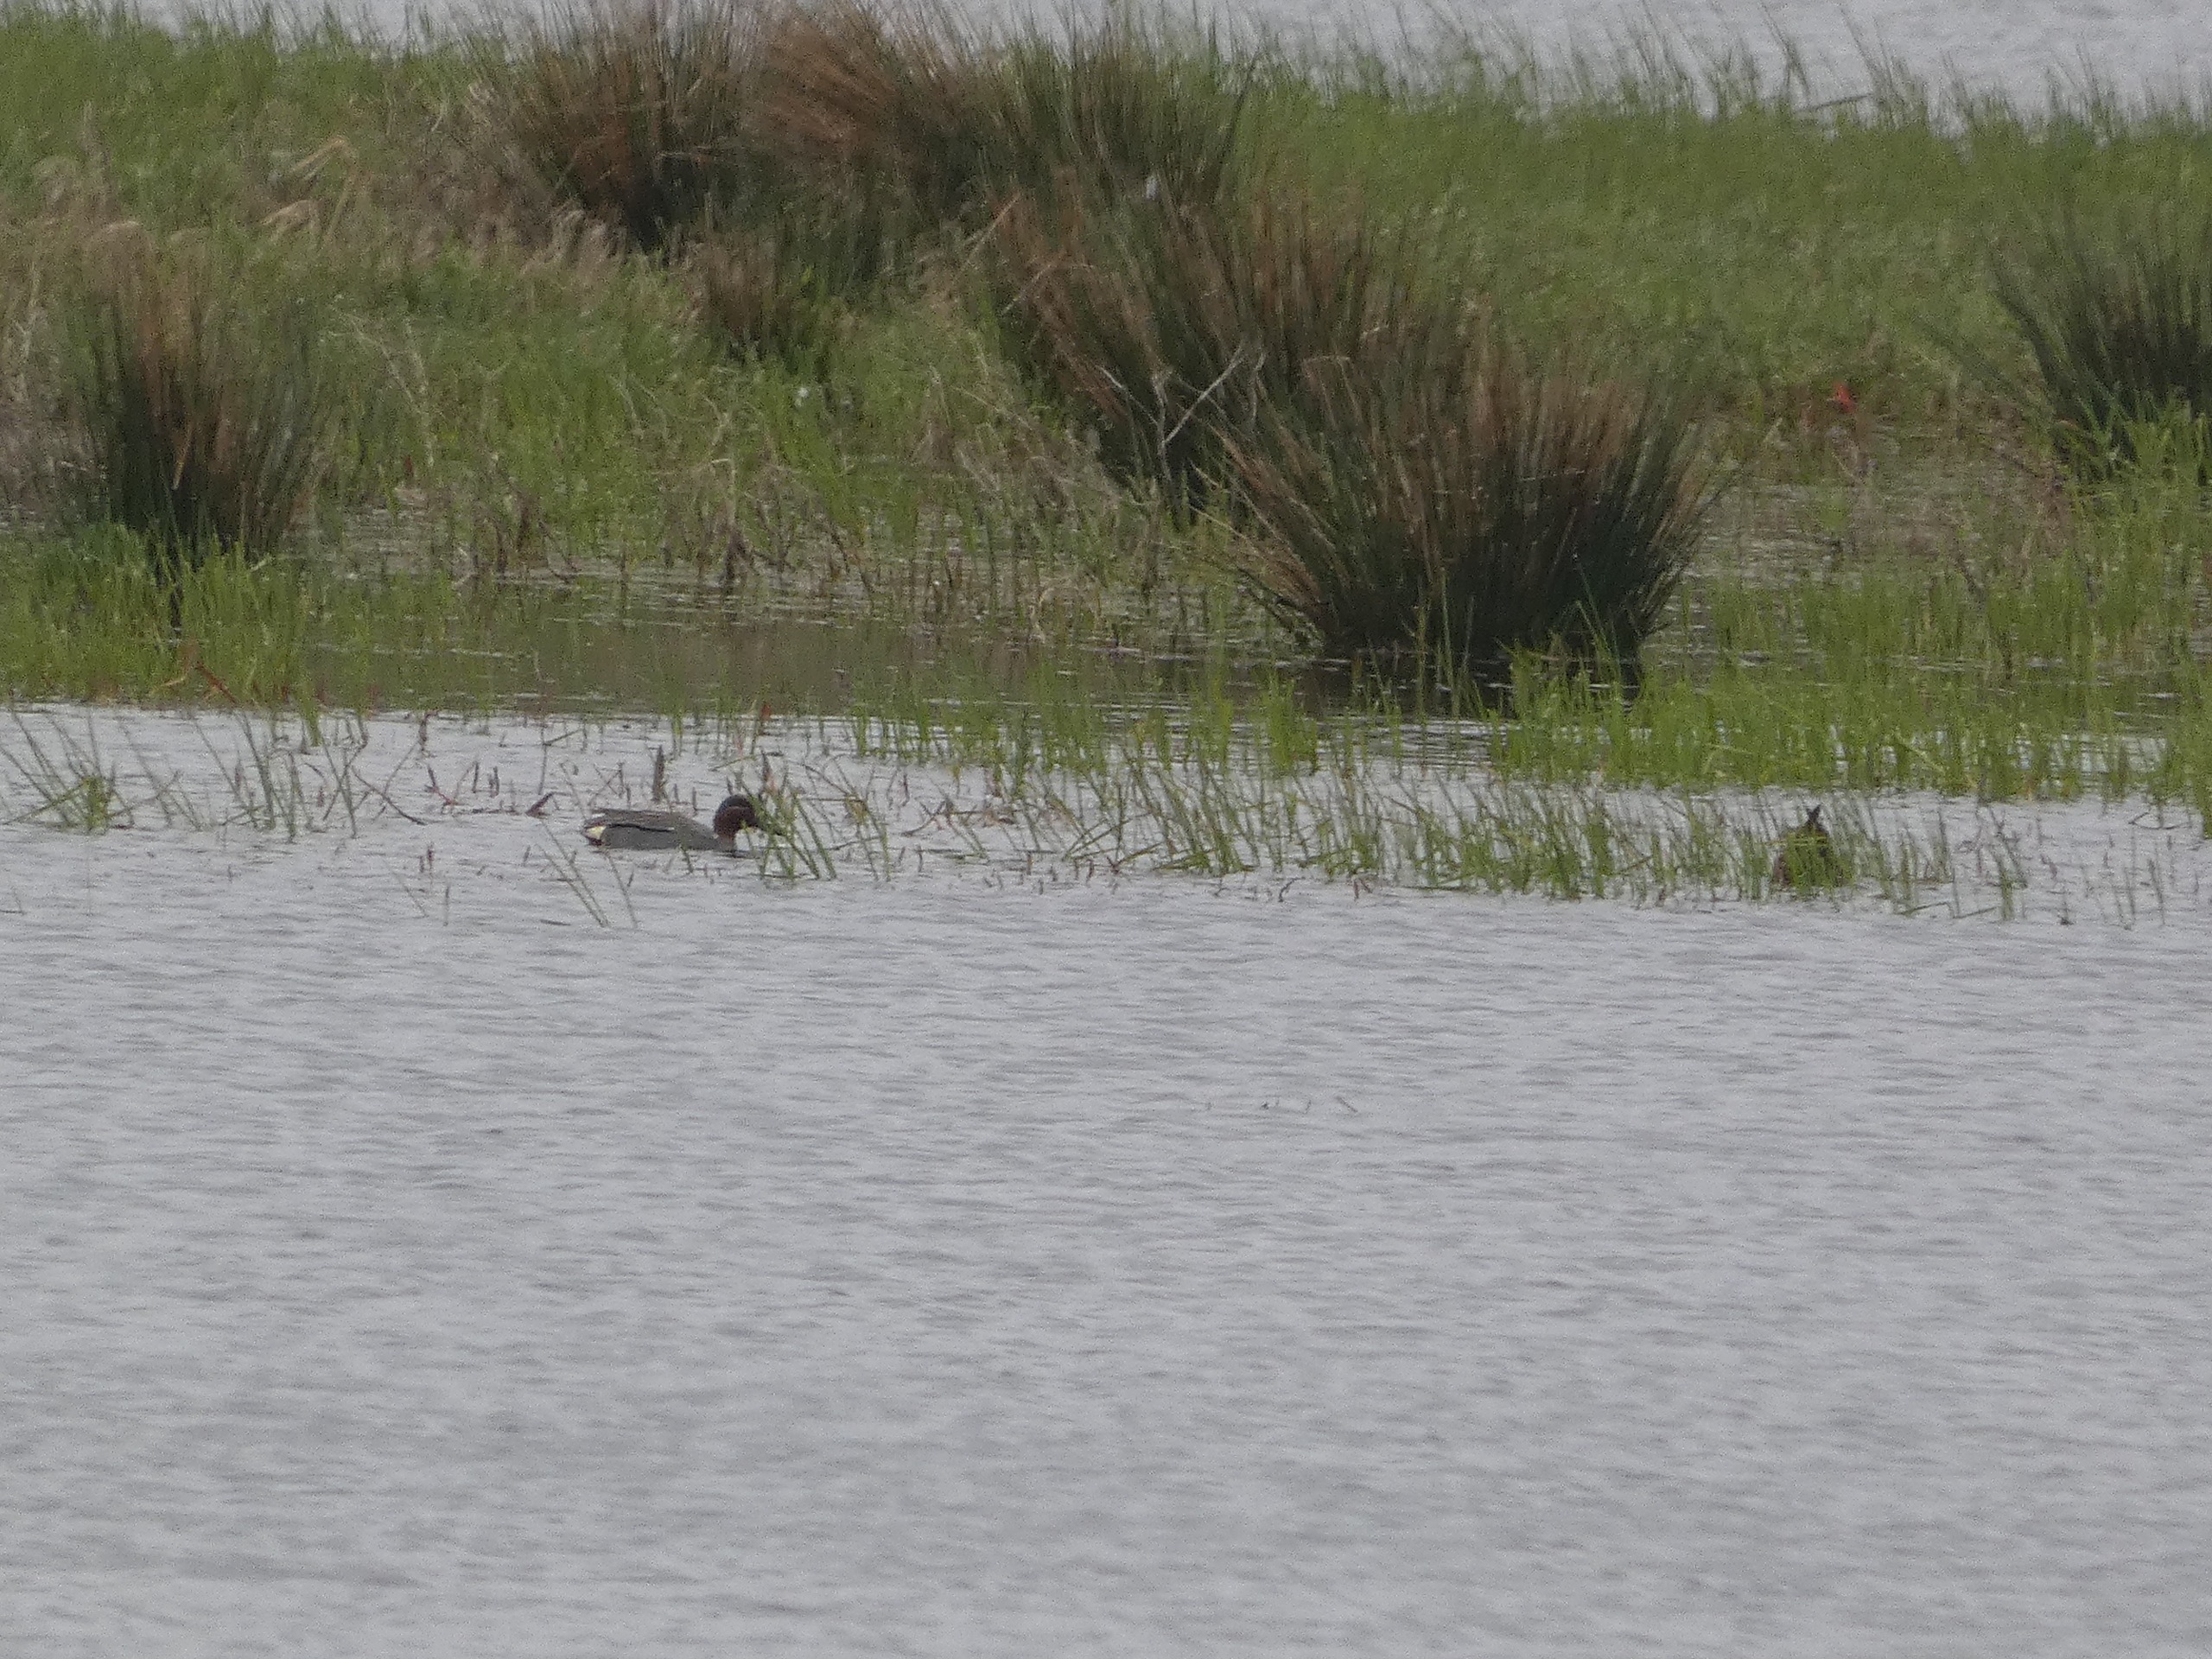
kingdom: Animalia
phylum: Chordata
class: Aves
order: Anseriformes
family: Anatidae
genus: Anas
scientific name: Anas crecca
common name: Krikand
